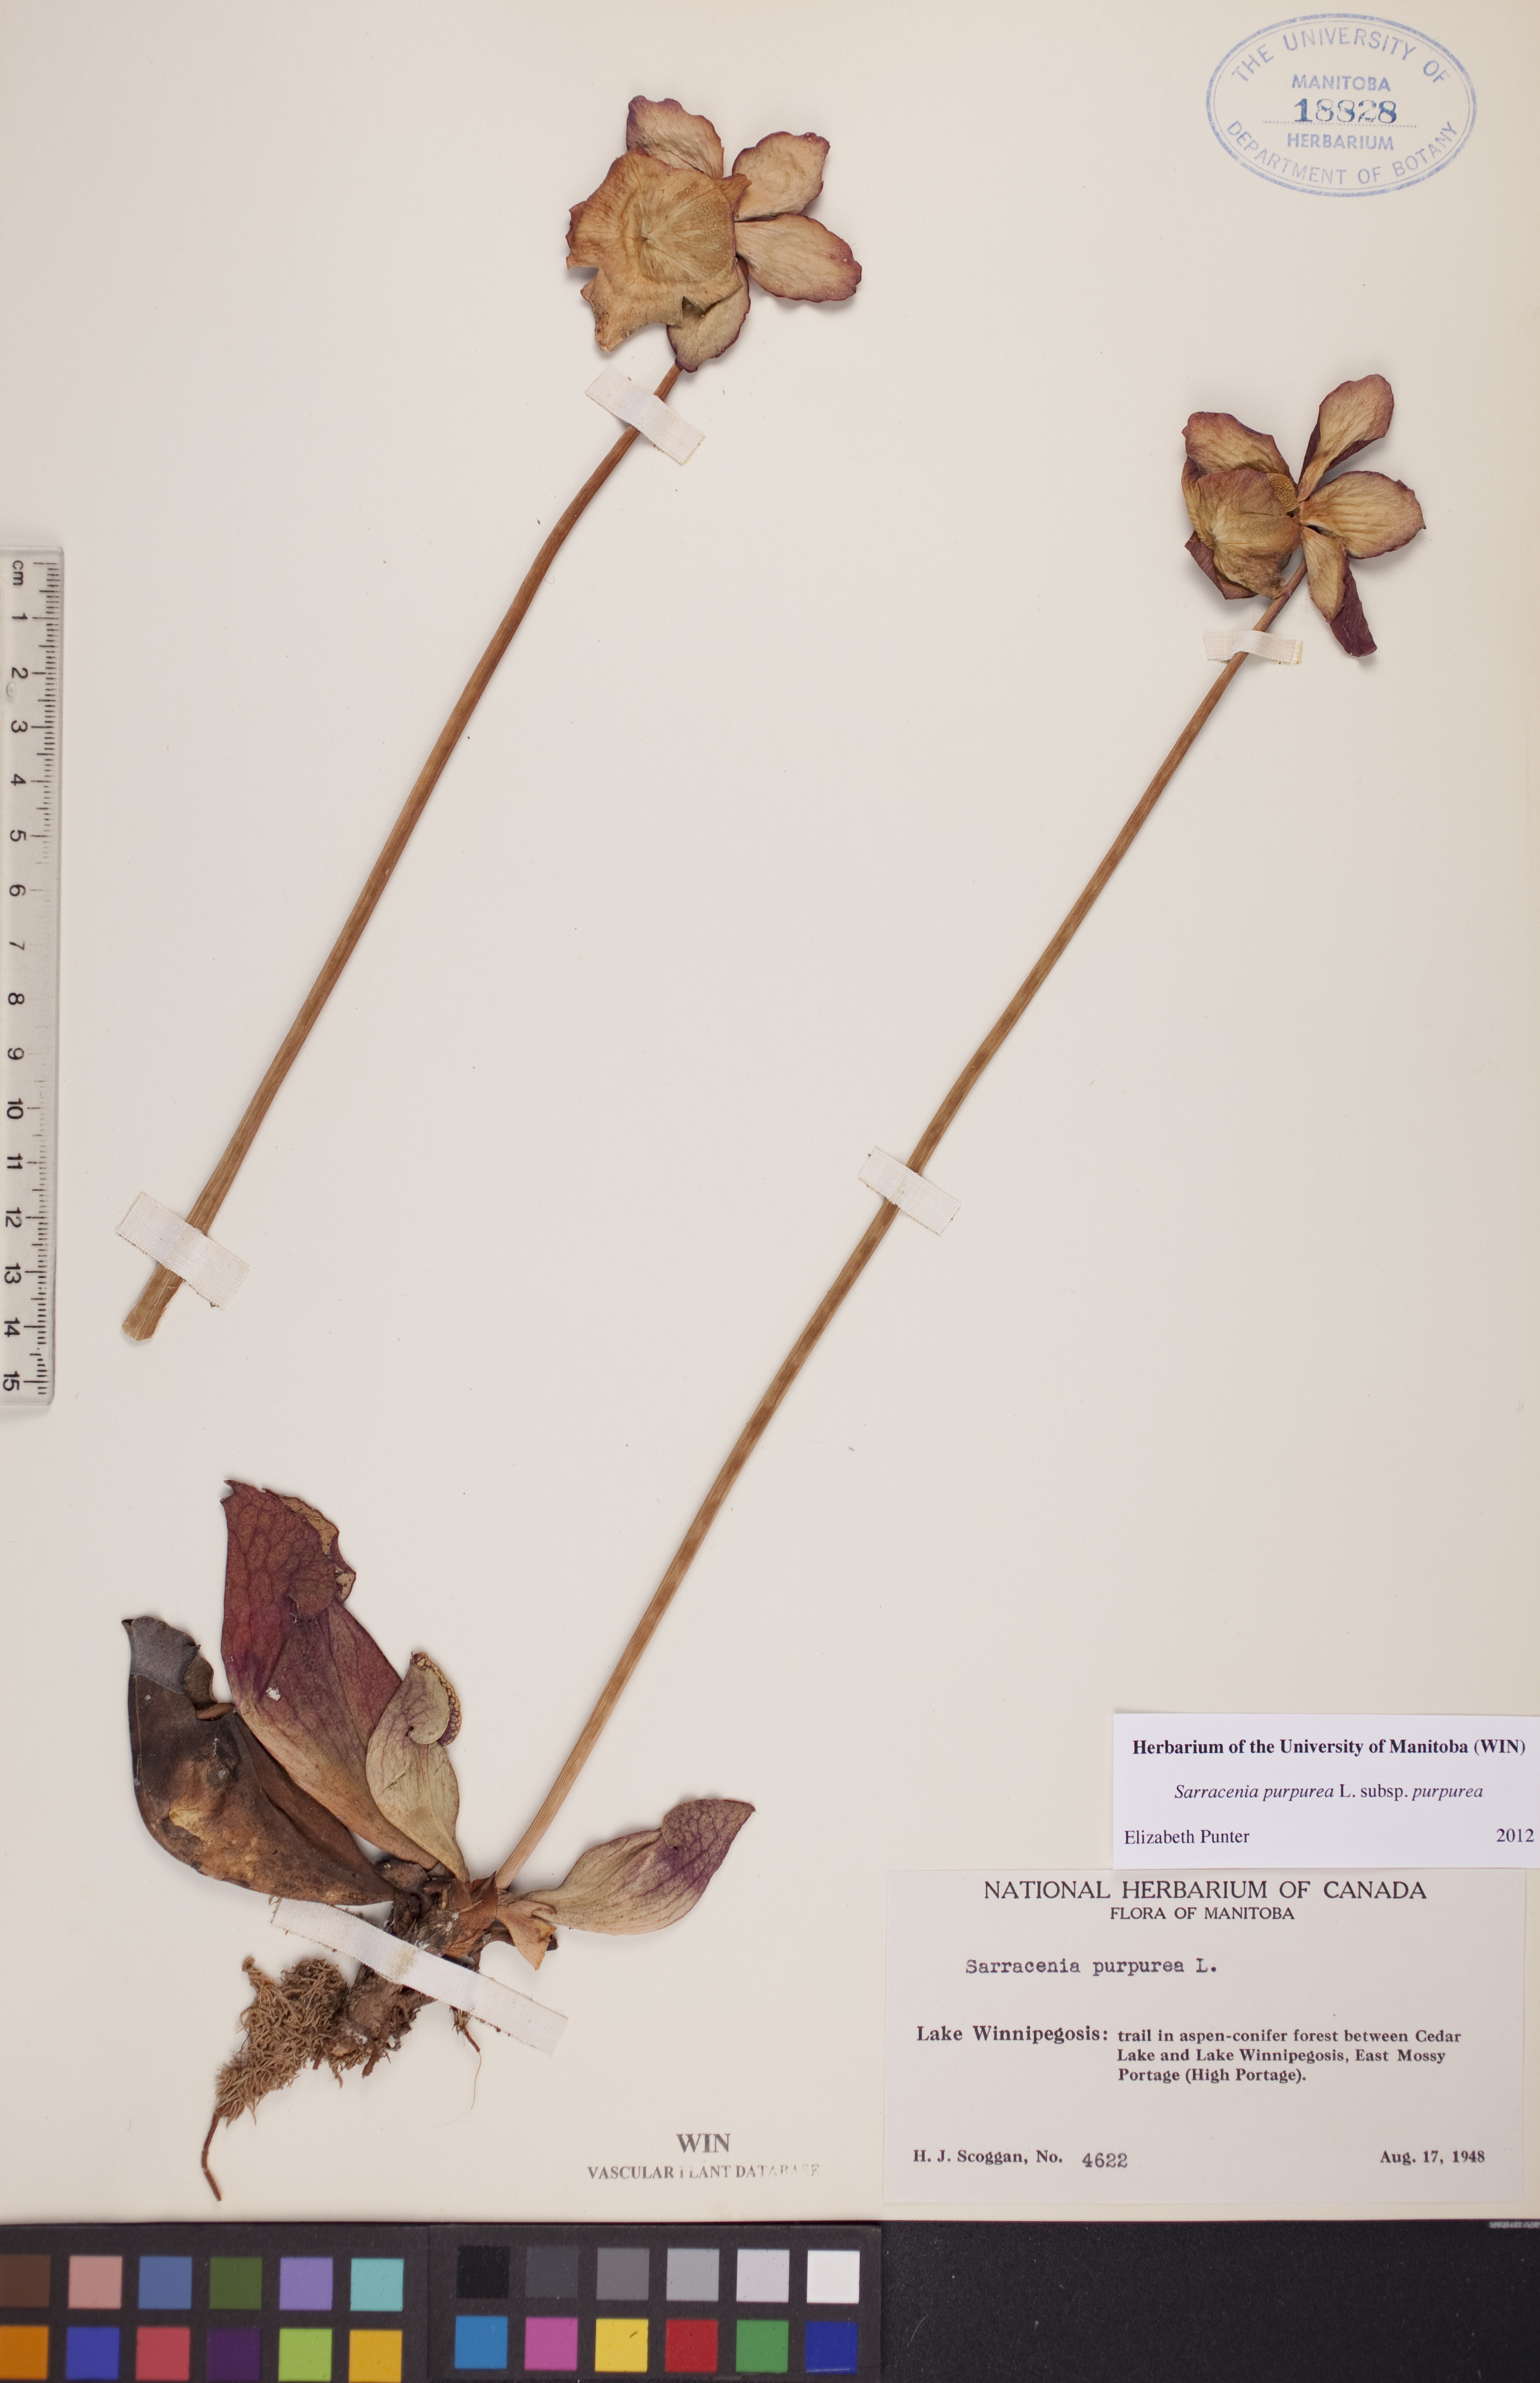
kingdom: Plantae
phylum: Tracheophyta
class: Magnoliopsida
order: Ericales
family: Sarraceniaceae
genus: Sarracenia
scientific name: Sarracenia purpurea
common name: Pitcherplant
